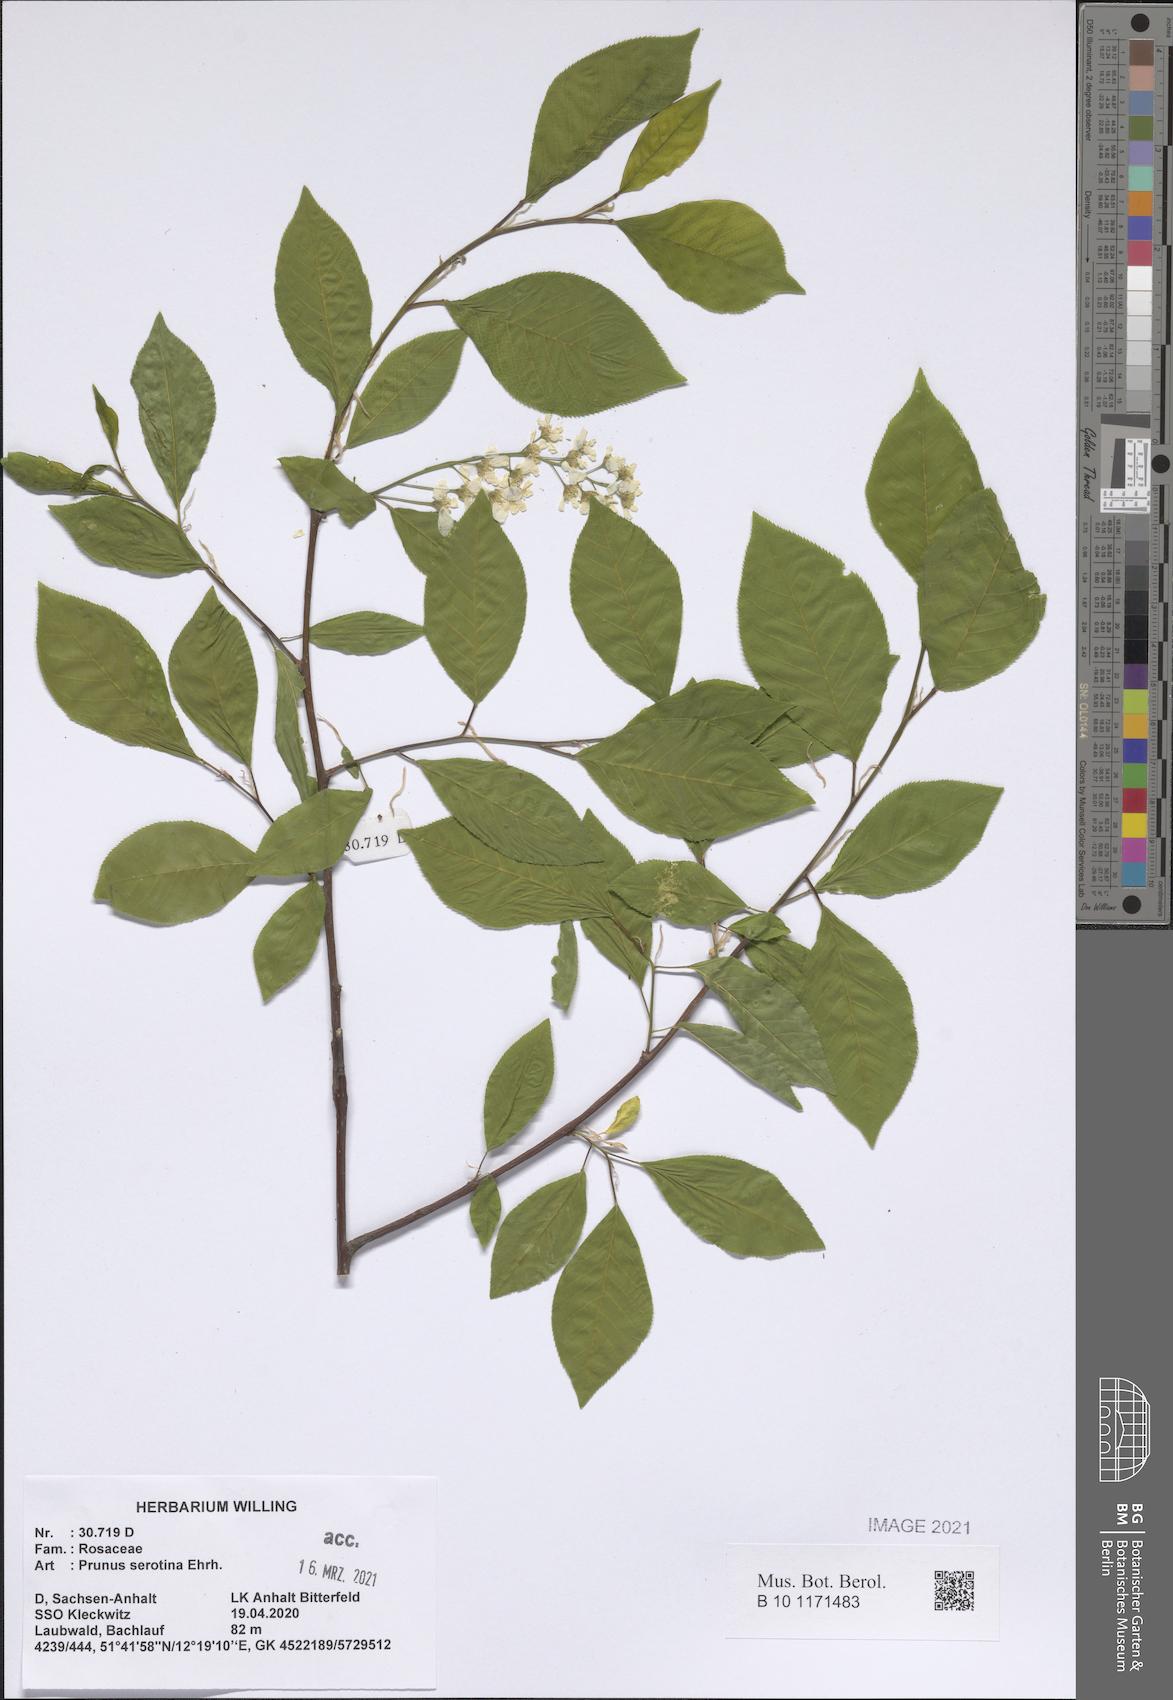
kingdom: Plantae
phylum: Tracheophyta
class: Magnoliopsida
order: Rosales
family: Rosaceae
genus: Prunus
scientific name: Prunus serotina
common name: Black cherry
